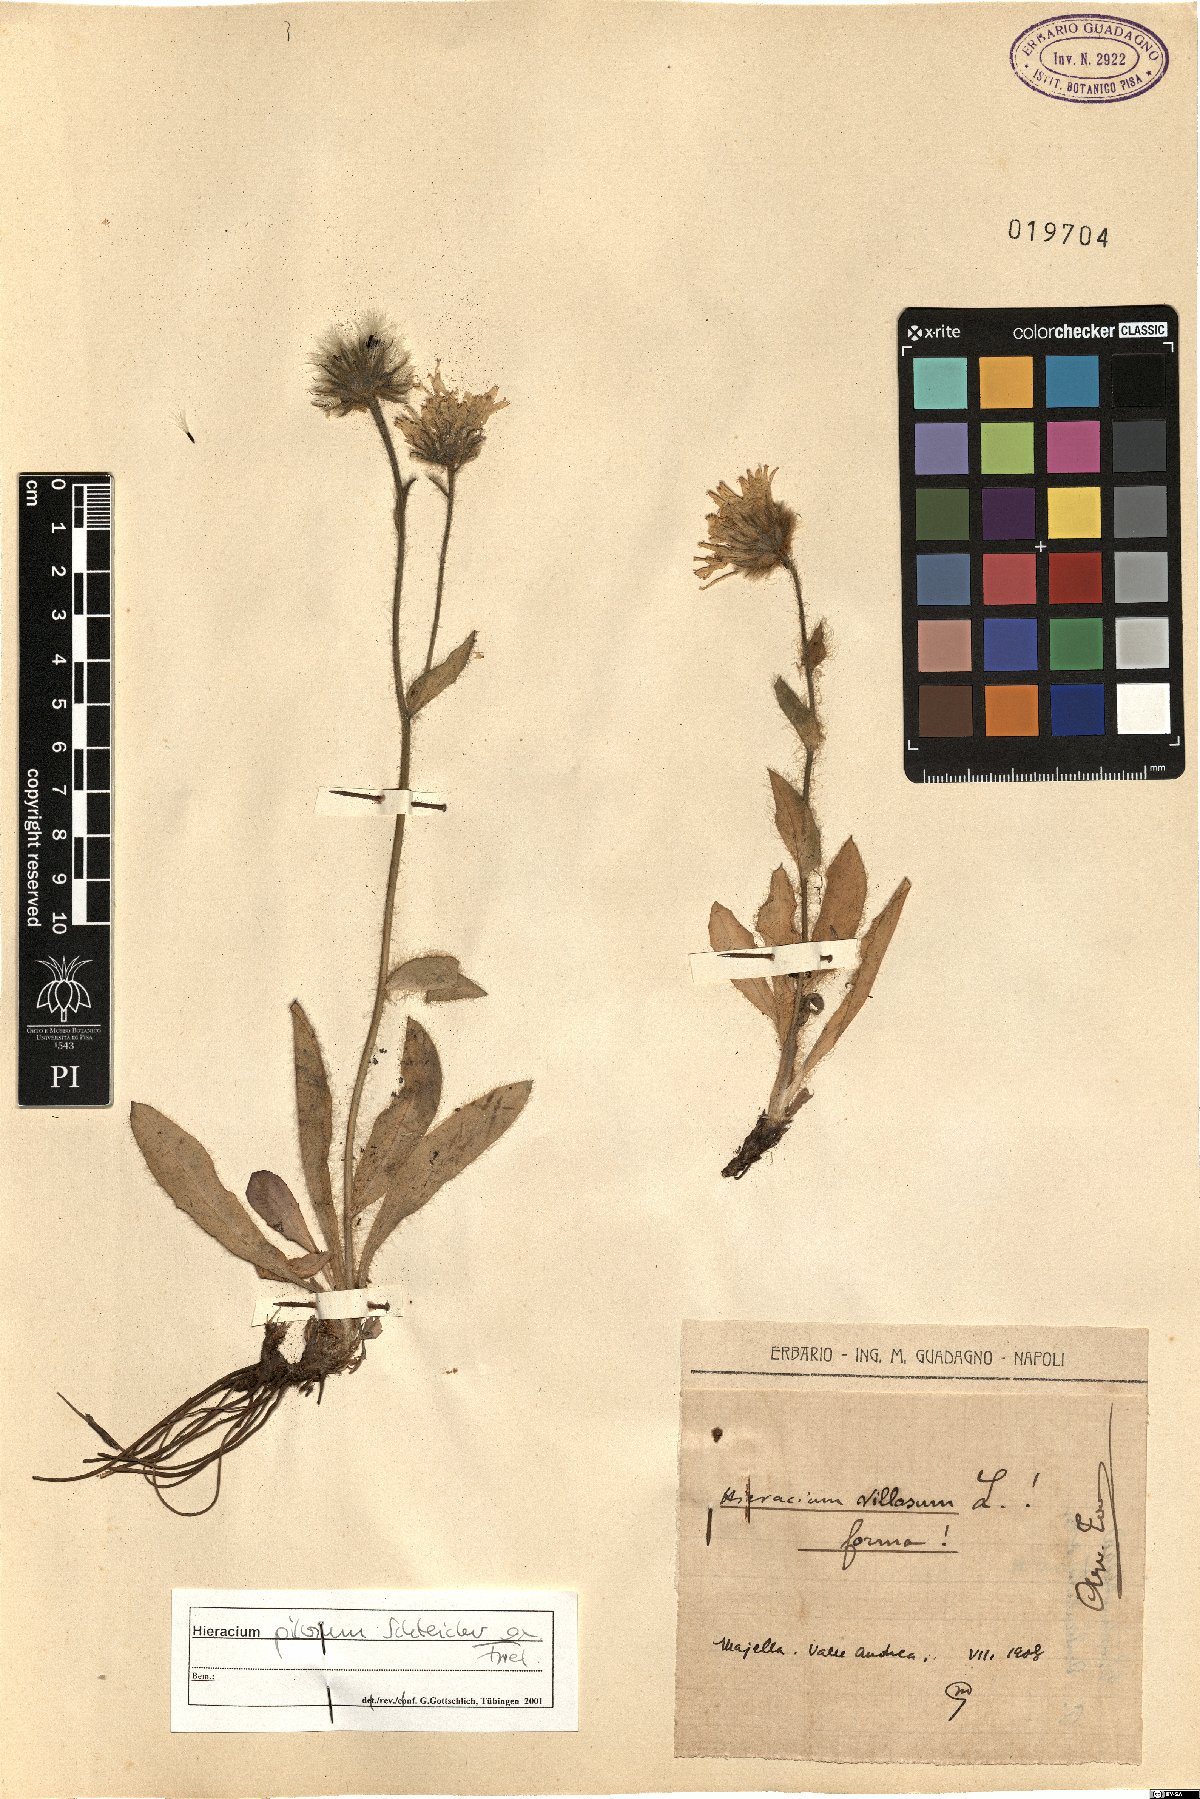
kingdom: Plantae
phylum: Tracheophyta
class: Magnoliopsida
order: Asterales
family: Asteraceae
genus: Hieracium
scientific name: Hieracium pilosum
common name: Fimbriate-pitted hawkweed
